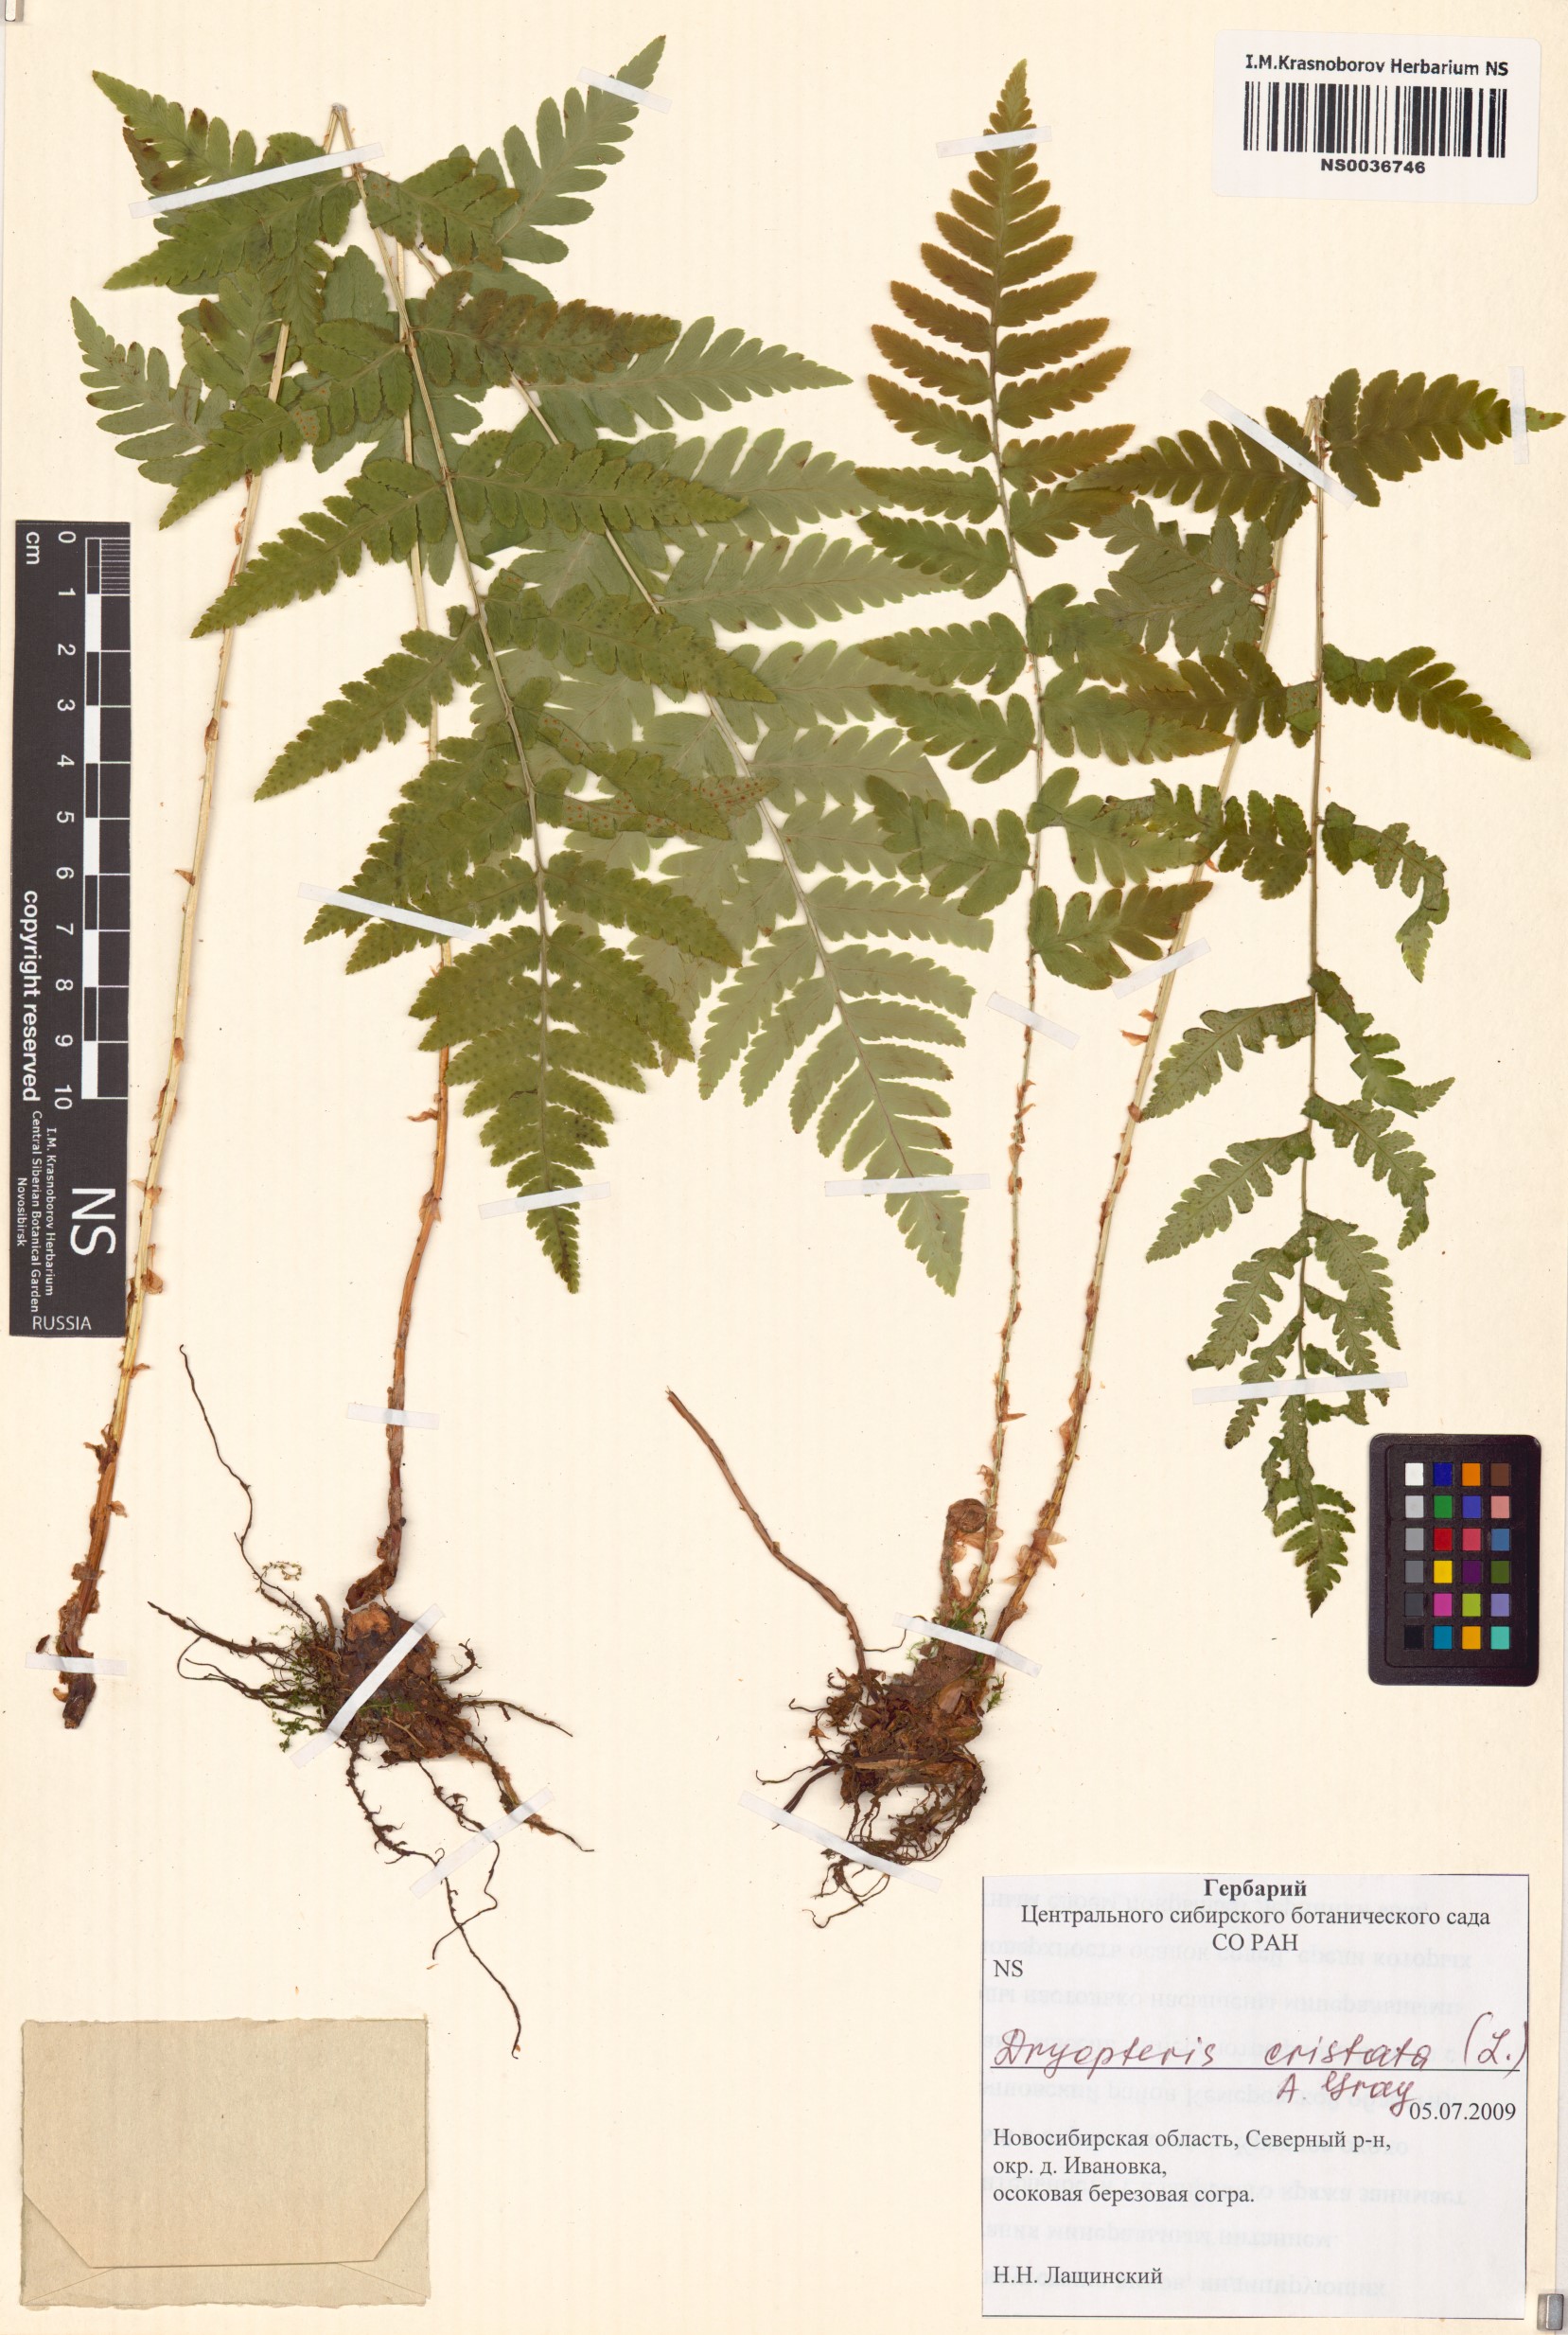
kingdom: Plantae
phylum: Tracheophyta
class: Polypodiopsida
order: Polypodiales
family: Dryopteridaceae
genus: Dryopteris
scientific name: Dryopteris cristata
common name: Crested wood fern
